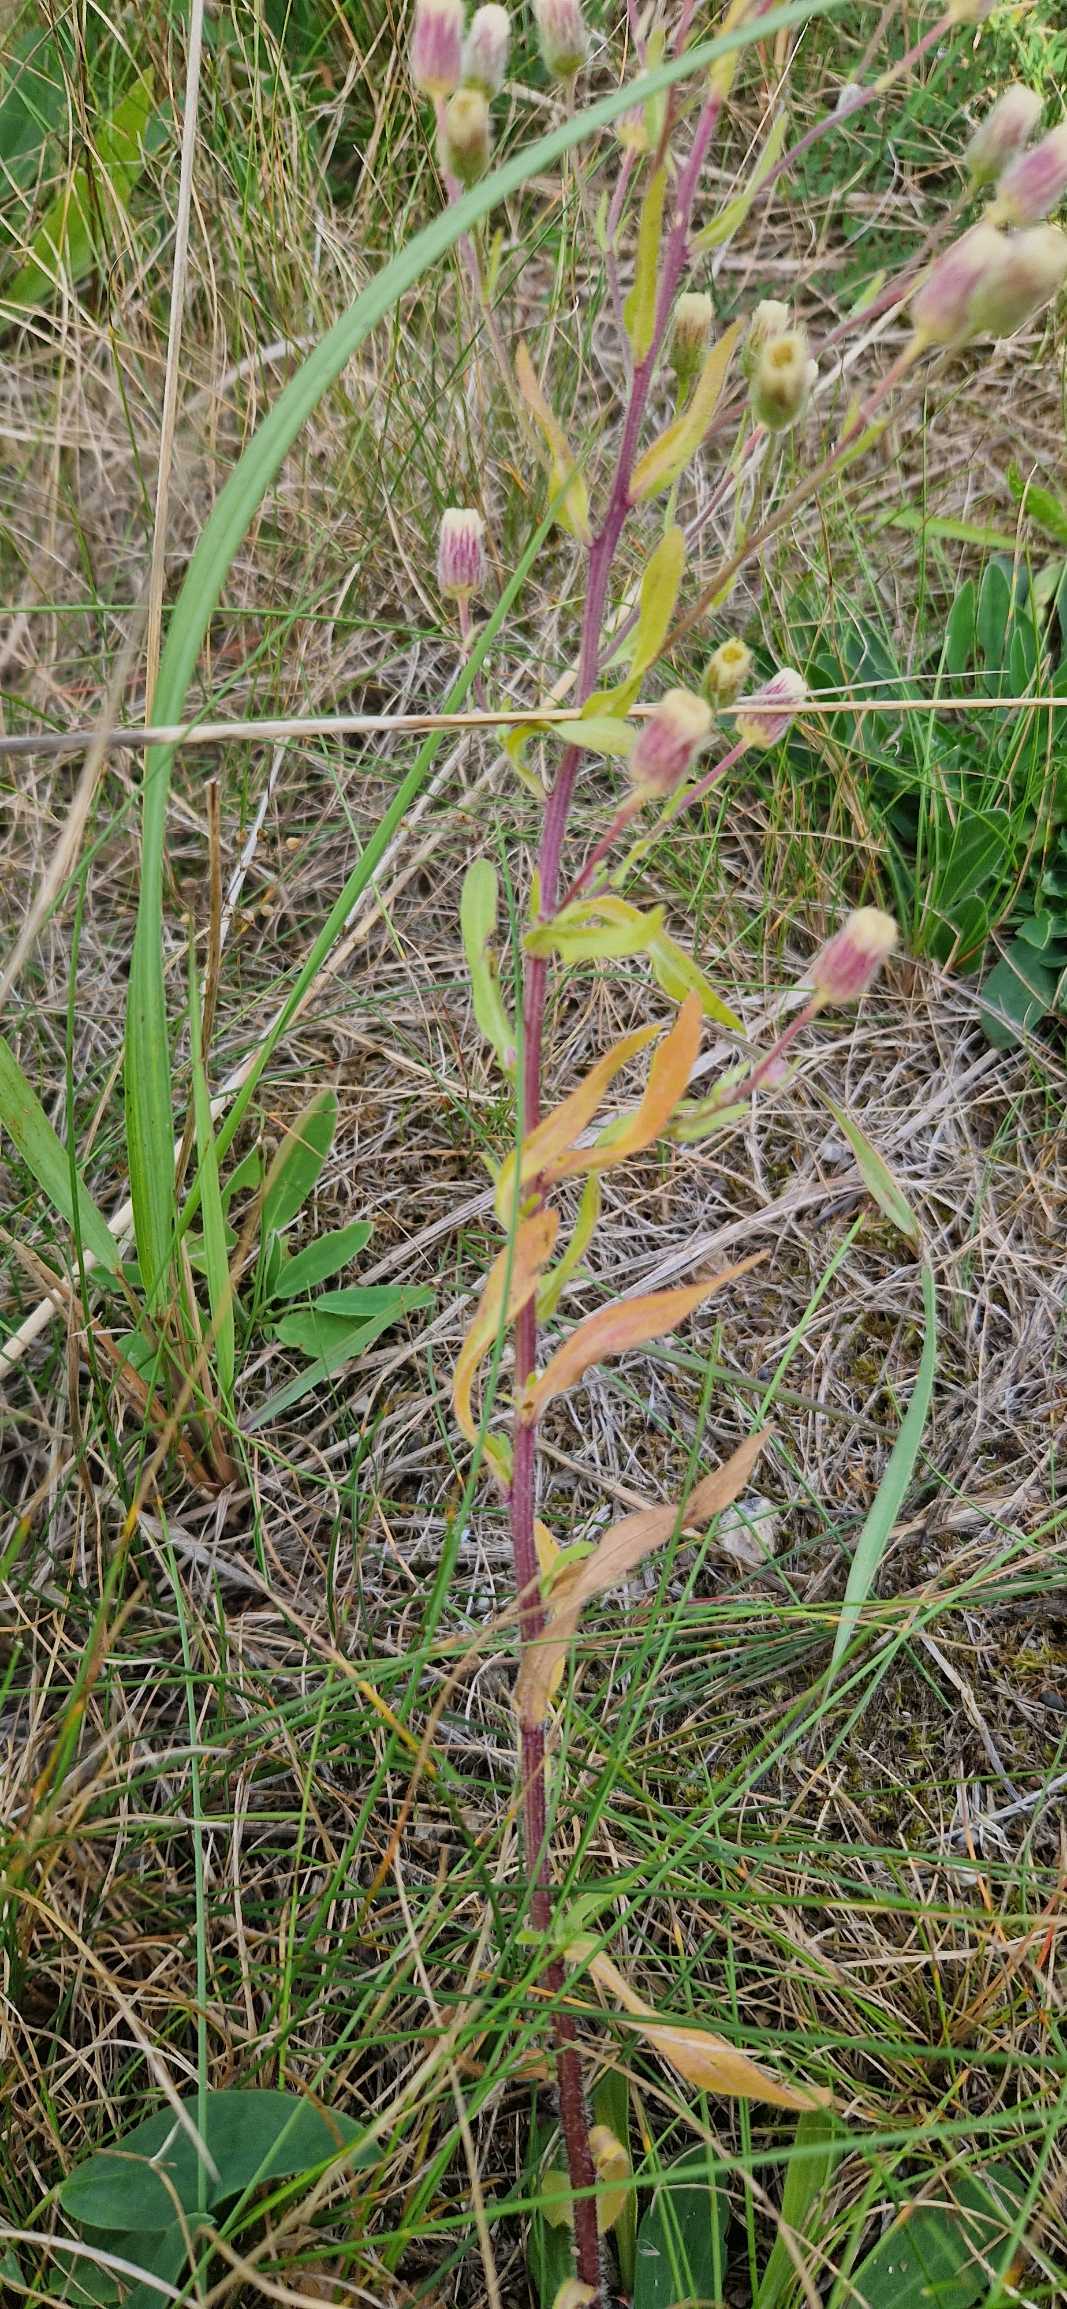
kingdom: Plantae
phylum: Tracheophyta
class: Magnoliopsida
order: Asterales
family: Asteraceae
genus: Erigeron
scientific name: Erigeron muralis
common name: Vreden bakkestjerne
